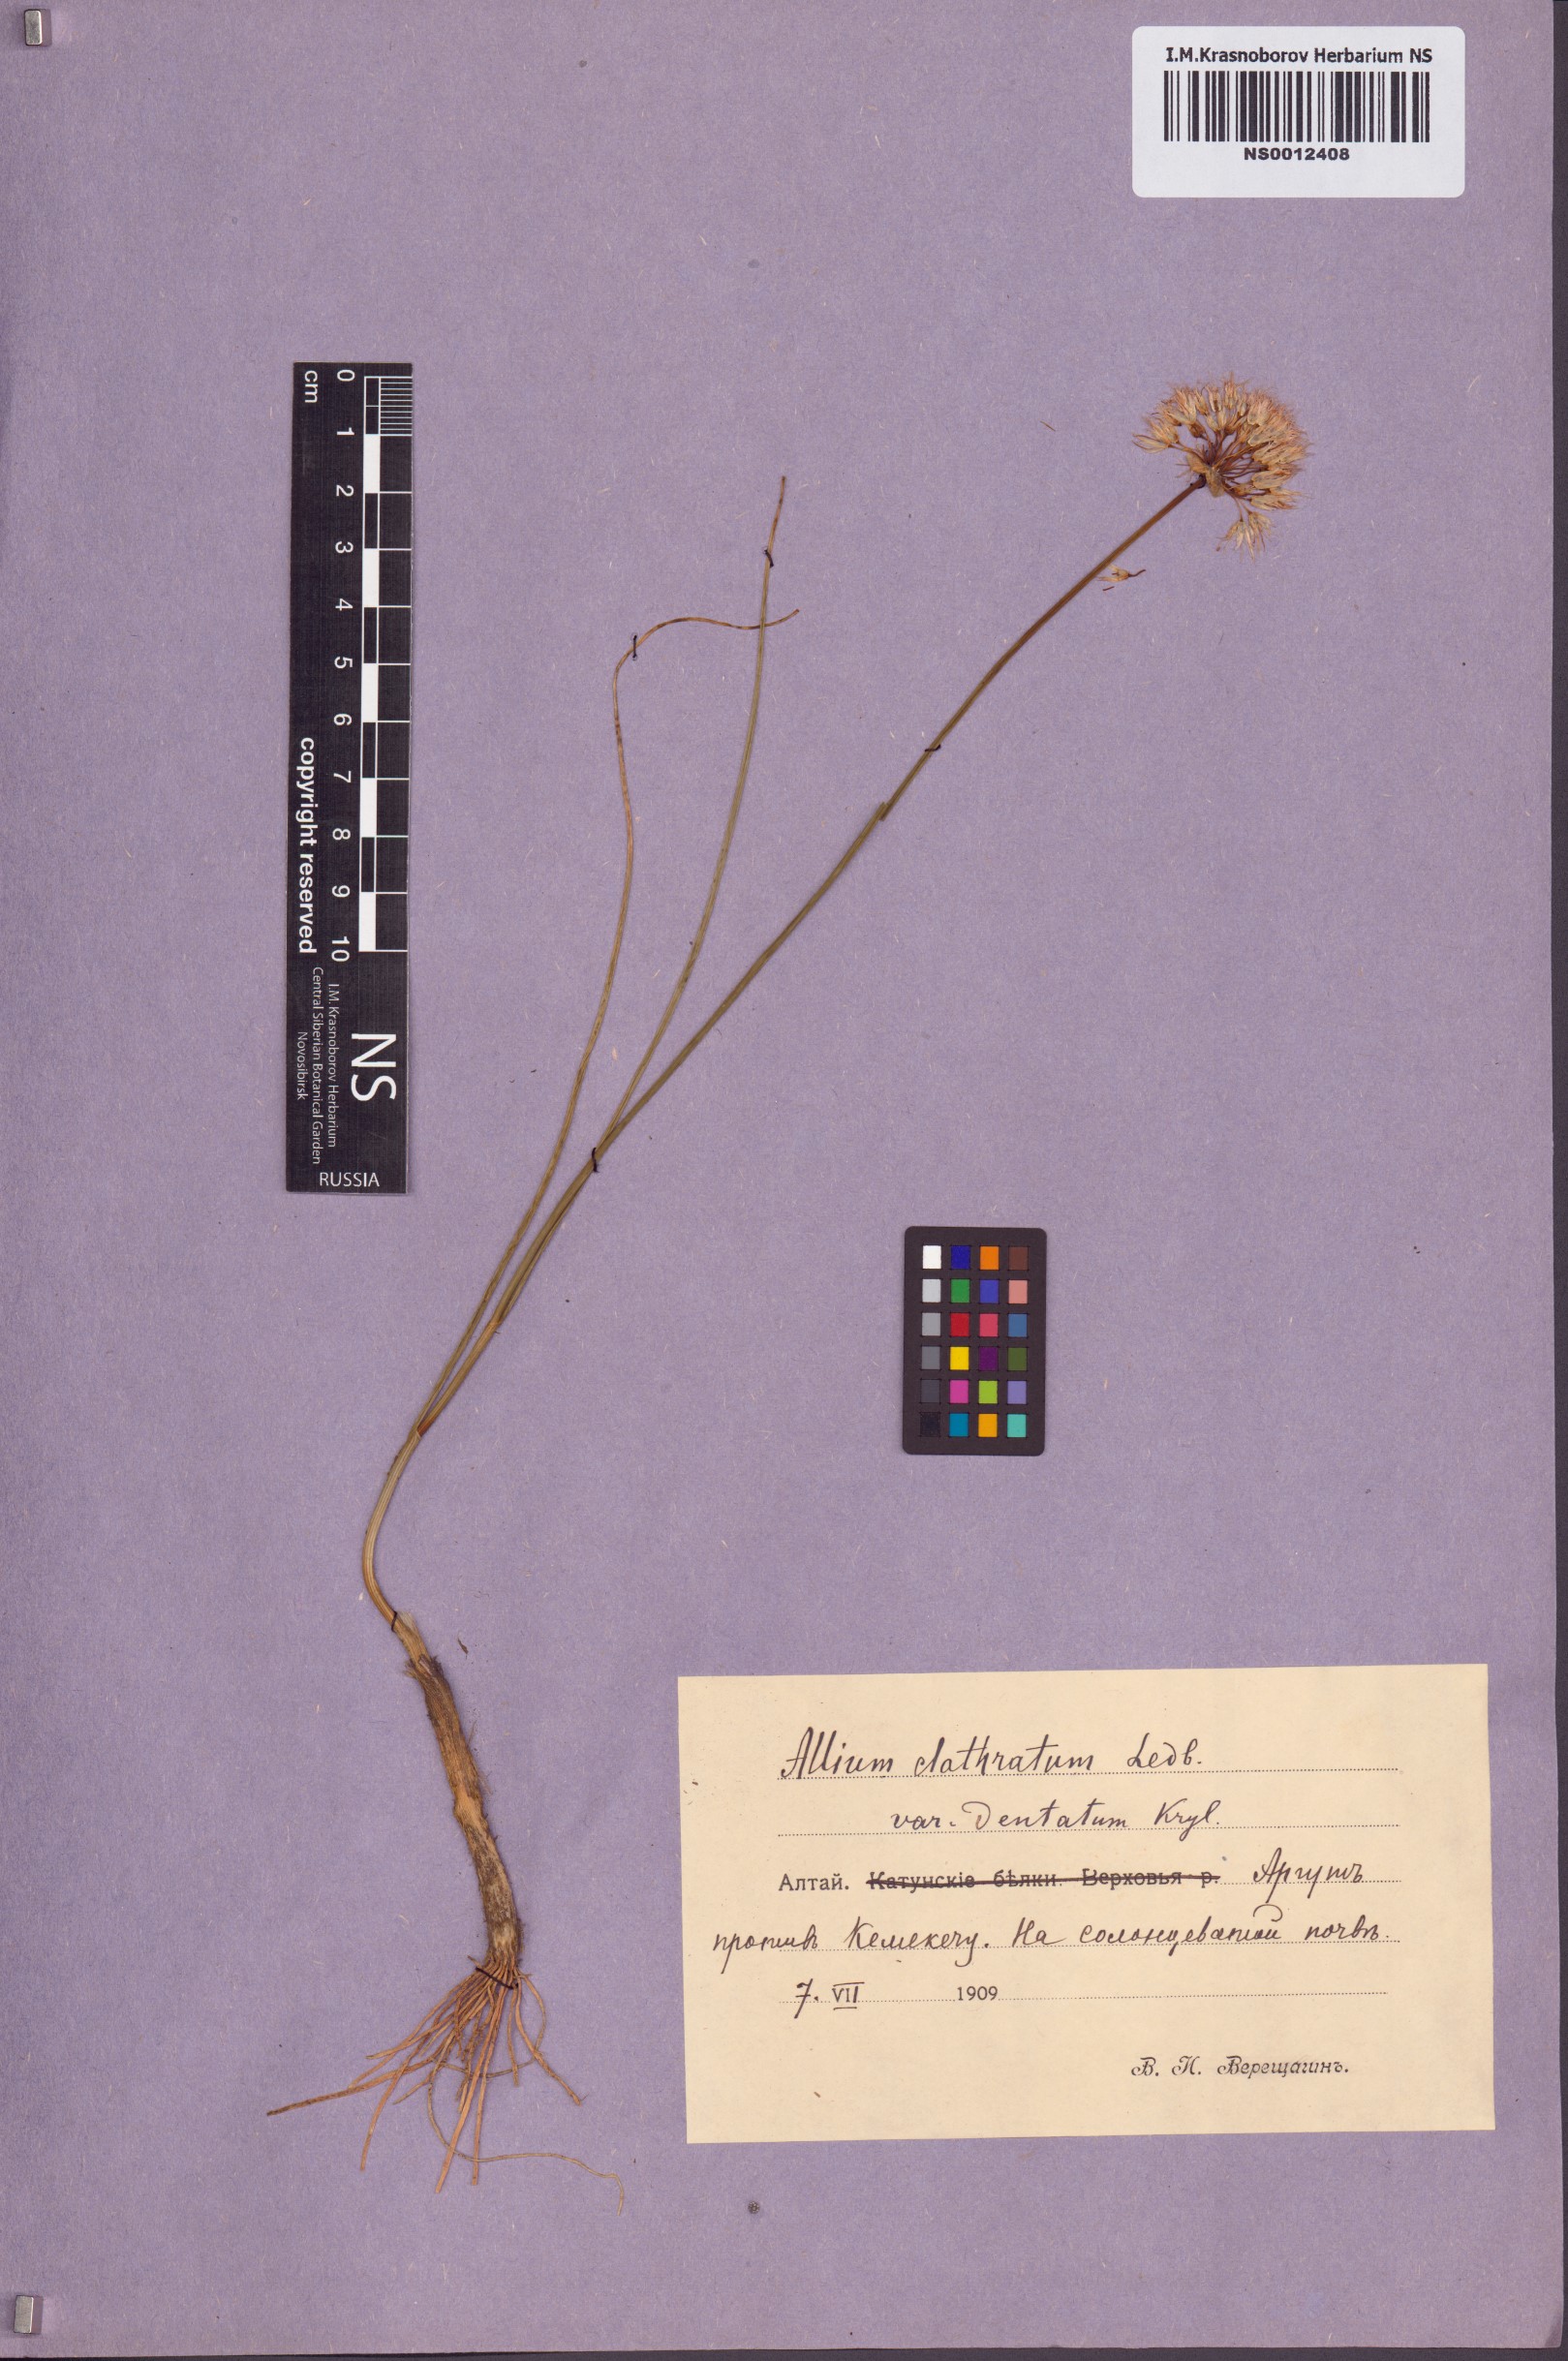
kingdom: Plantae
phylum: Tracheophyta
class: Liliopsida
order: Asparagales
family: Amaryllidaceae
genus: Allium
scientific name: Allium clathratum
